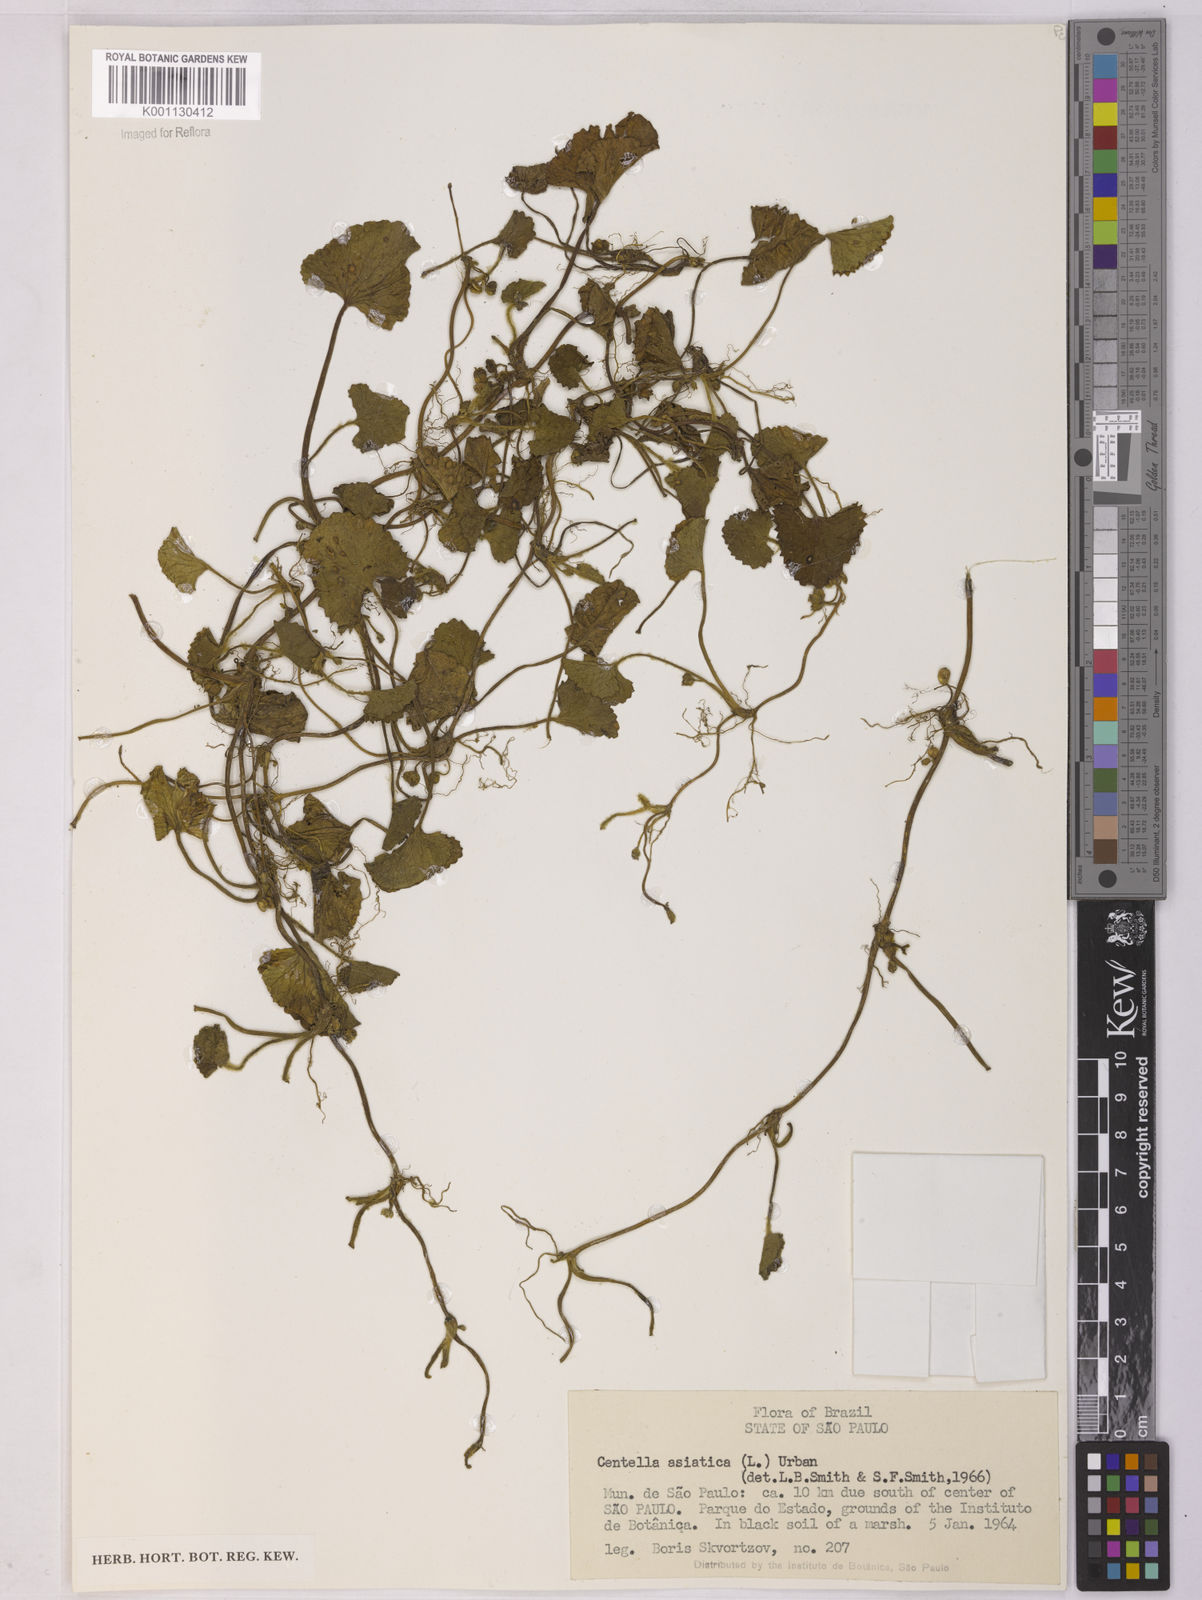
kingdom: Plantae
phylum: Tracheophyta
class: Magnoliopsida
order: Apiales
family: Apiaceae
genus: Centella
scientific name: Centella asiatica
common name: Spadeleaf
